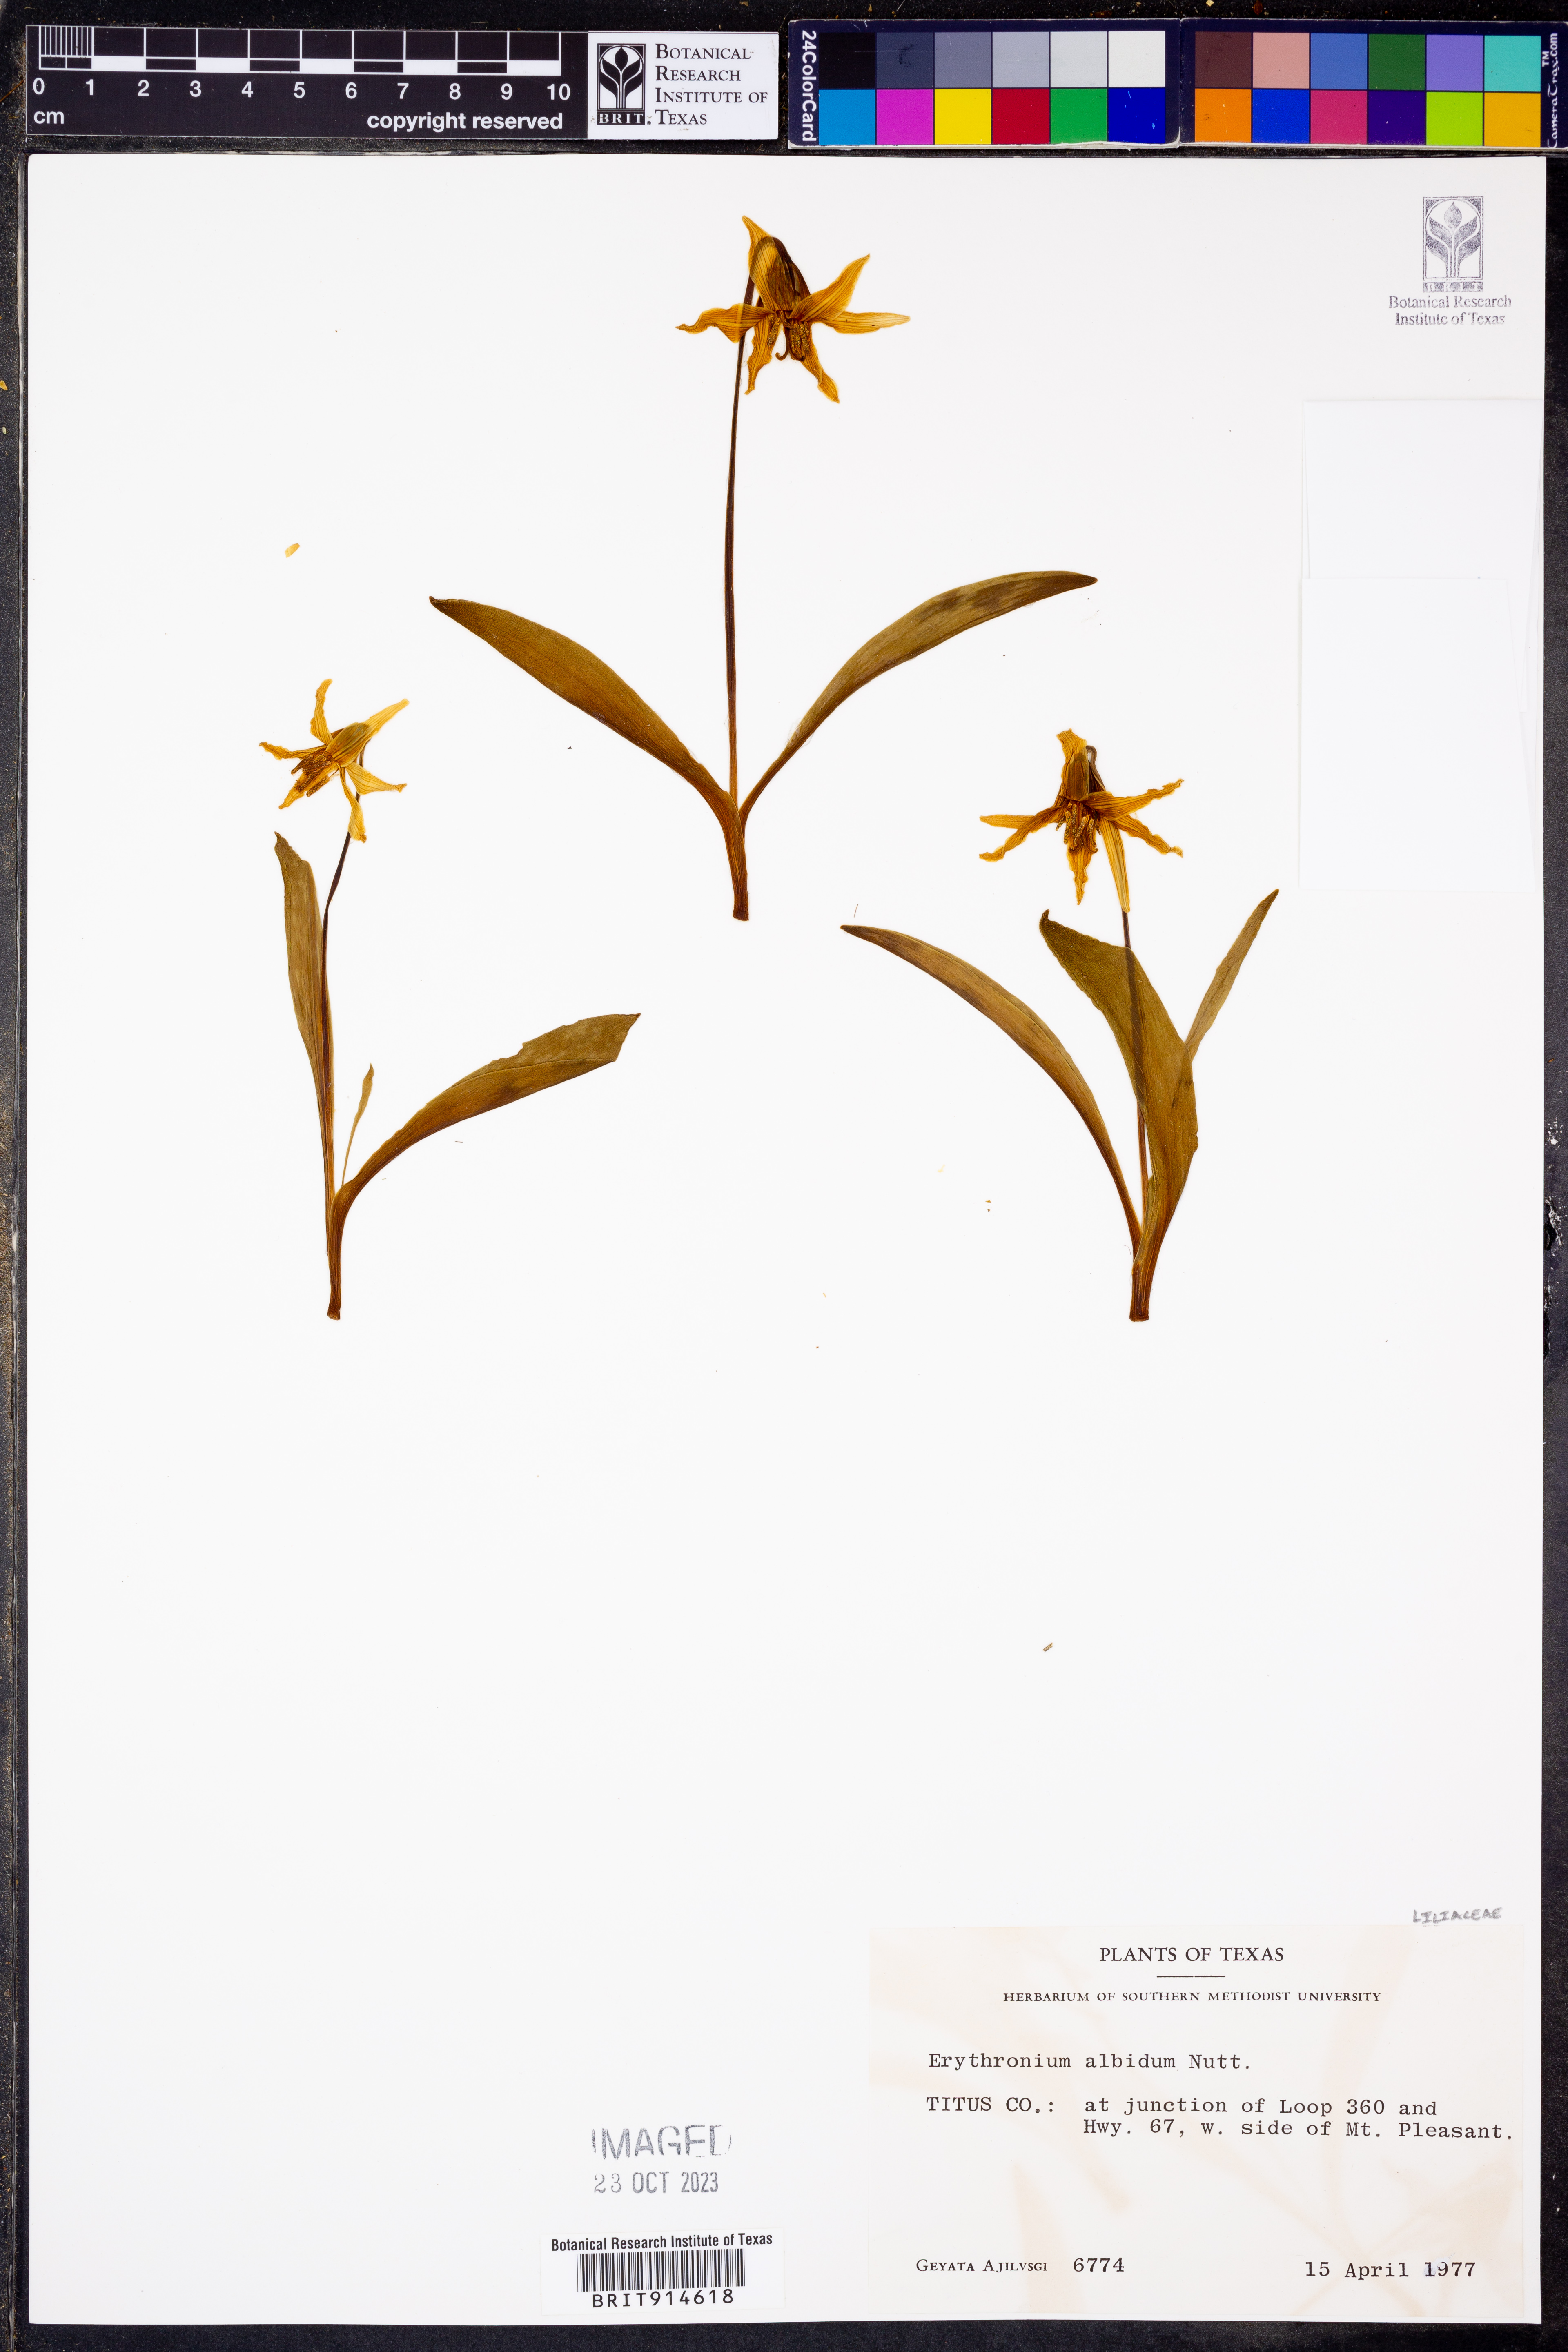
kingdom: Plantae
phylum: Tracheophyta
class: Liliopsida
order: Liliales
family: Liliaceae
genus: Erythronium
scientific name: Erythronium albidum
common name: White trout-lily
